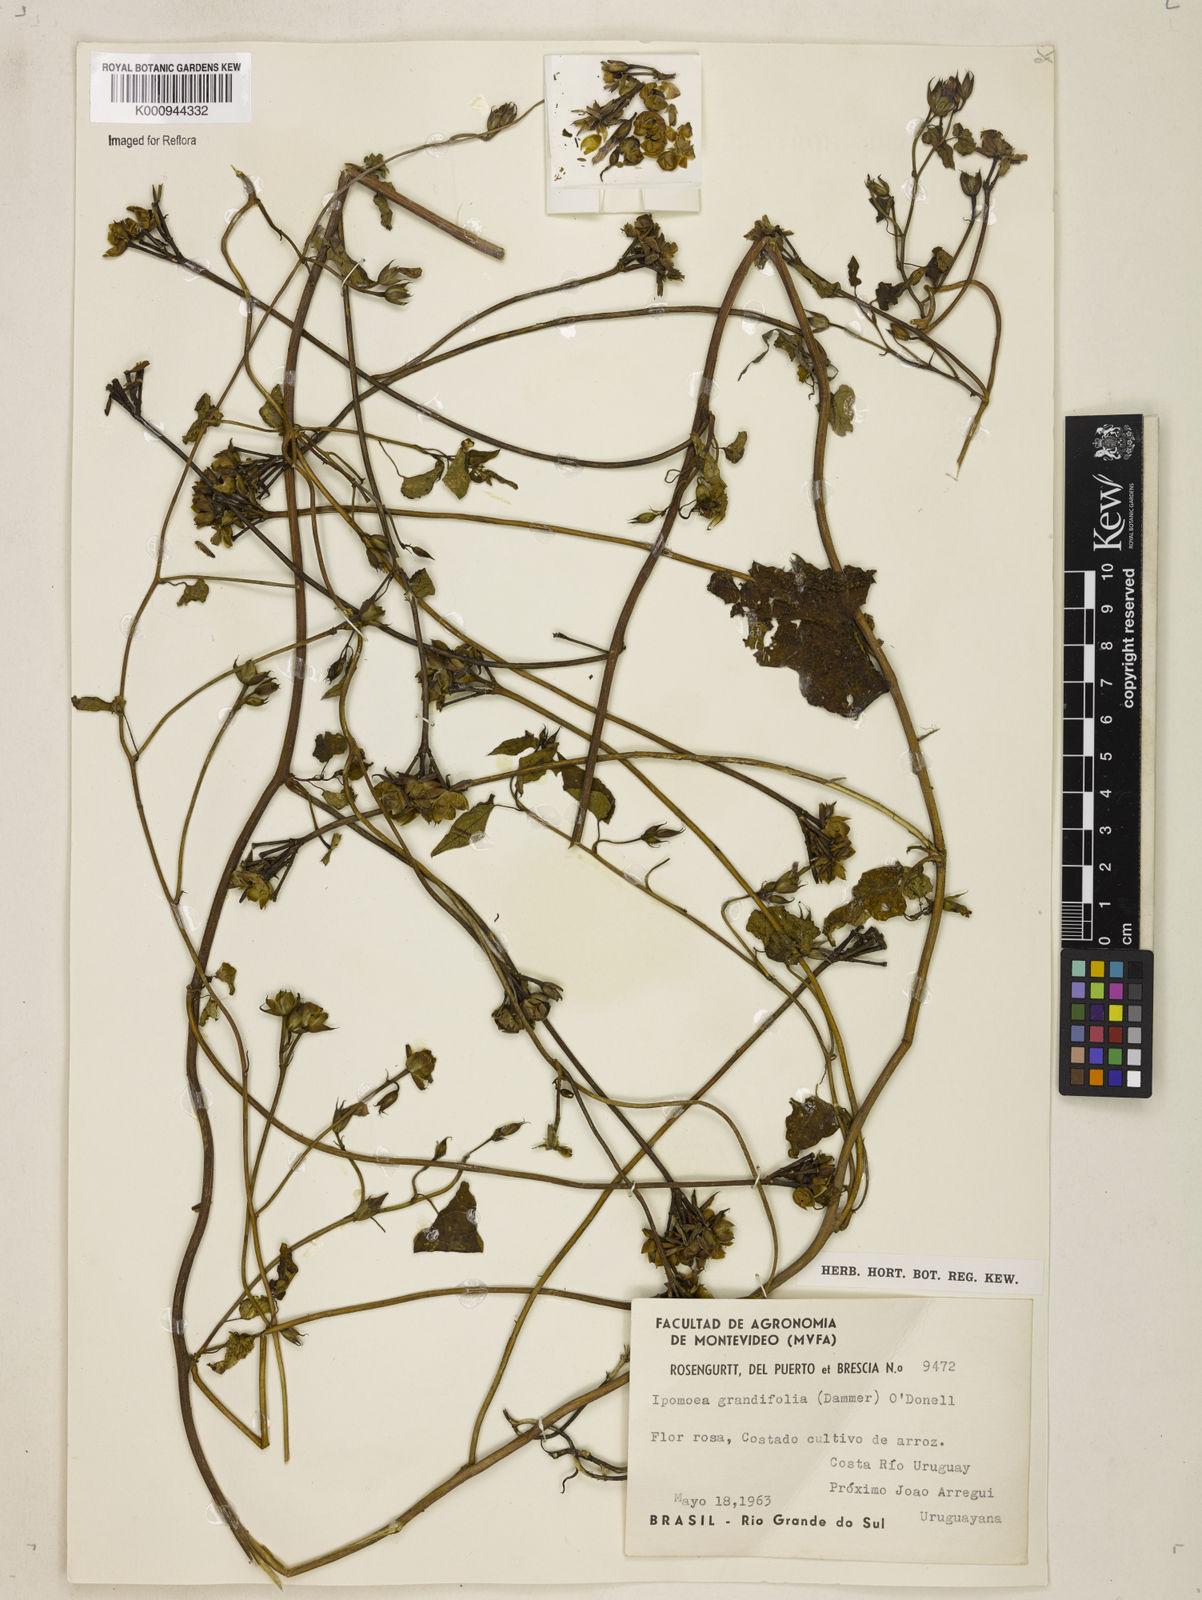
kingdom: Plantae
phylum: Tracheophyta
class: Magnoliopsida
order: Solanales
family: Convolvulaceae
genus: Ipomoea
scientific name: Ipomoea grandifolia
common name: Aiea morning glory
